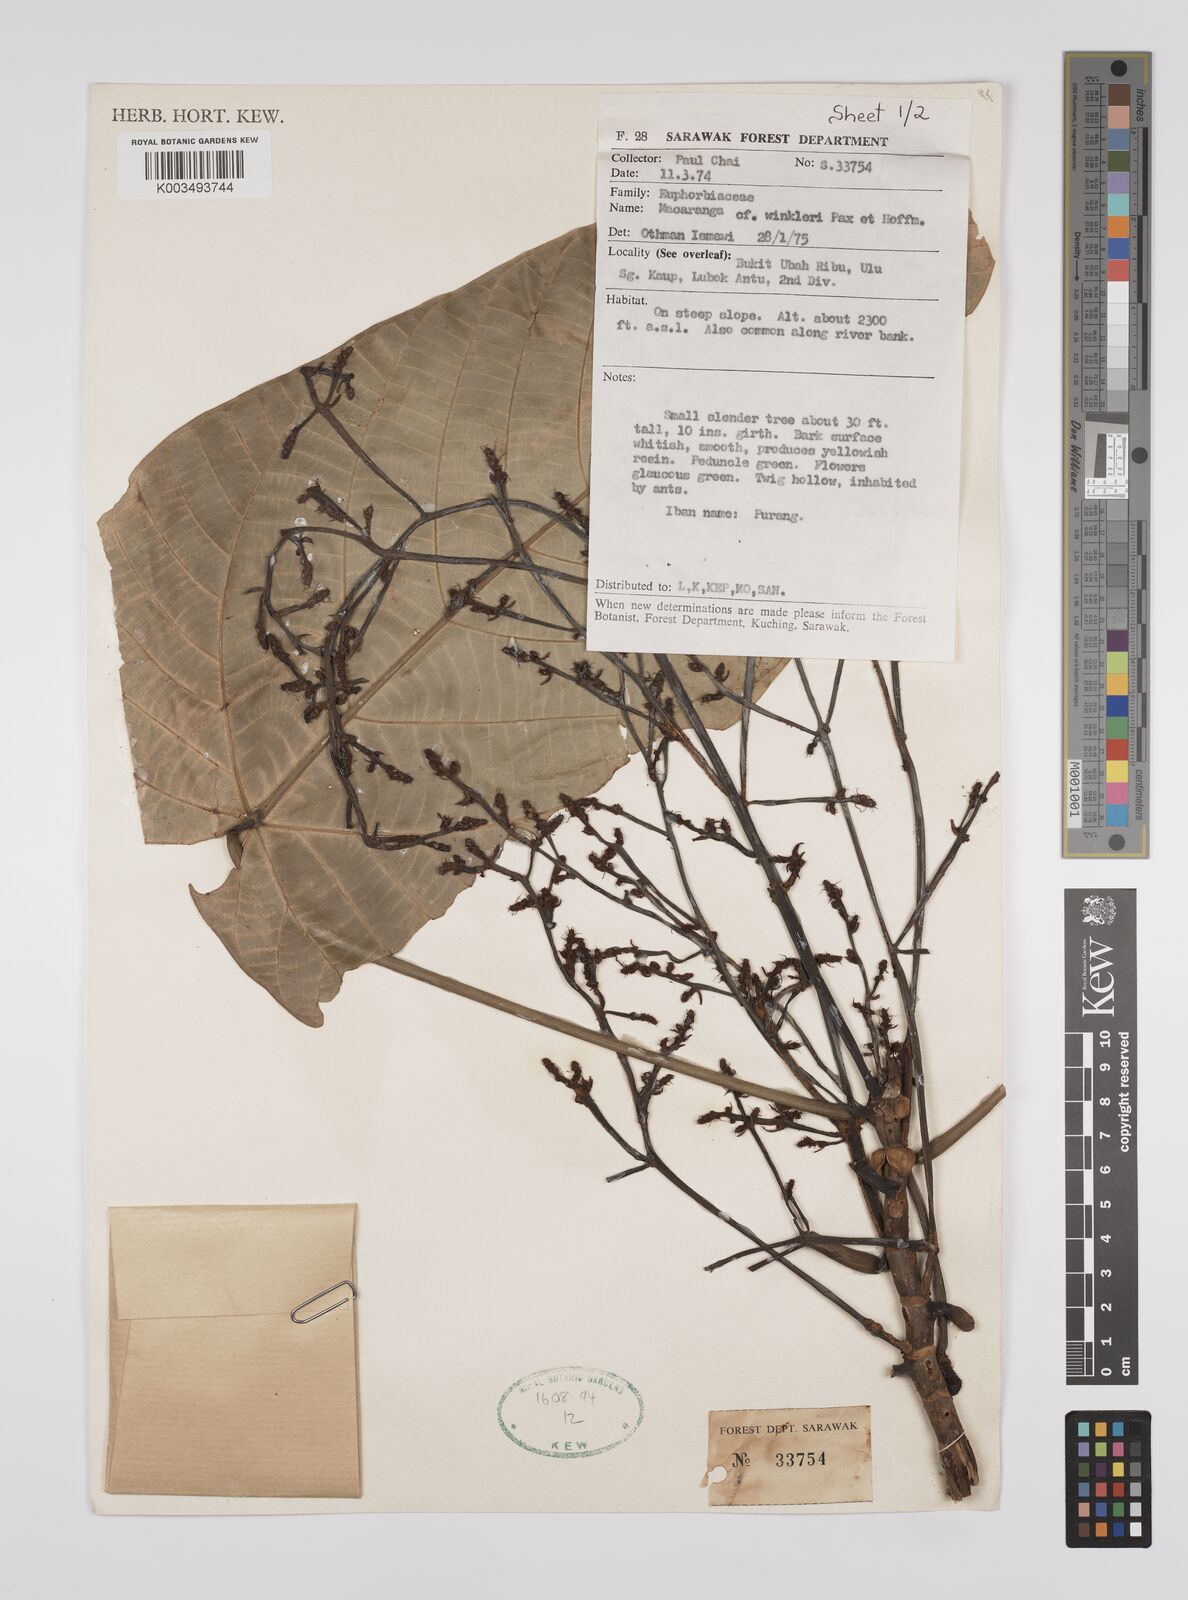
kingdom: Plantae
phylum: Tracheophyta
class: Magnoliopsida
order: Malpighiales
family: Euphorbiaceae
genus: Macaranga
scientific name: Macaranga winkleri
